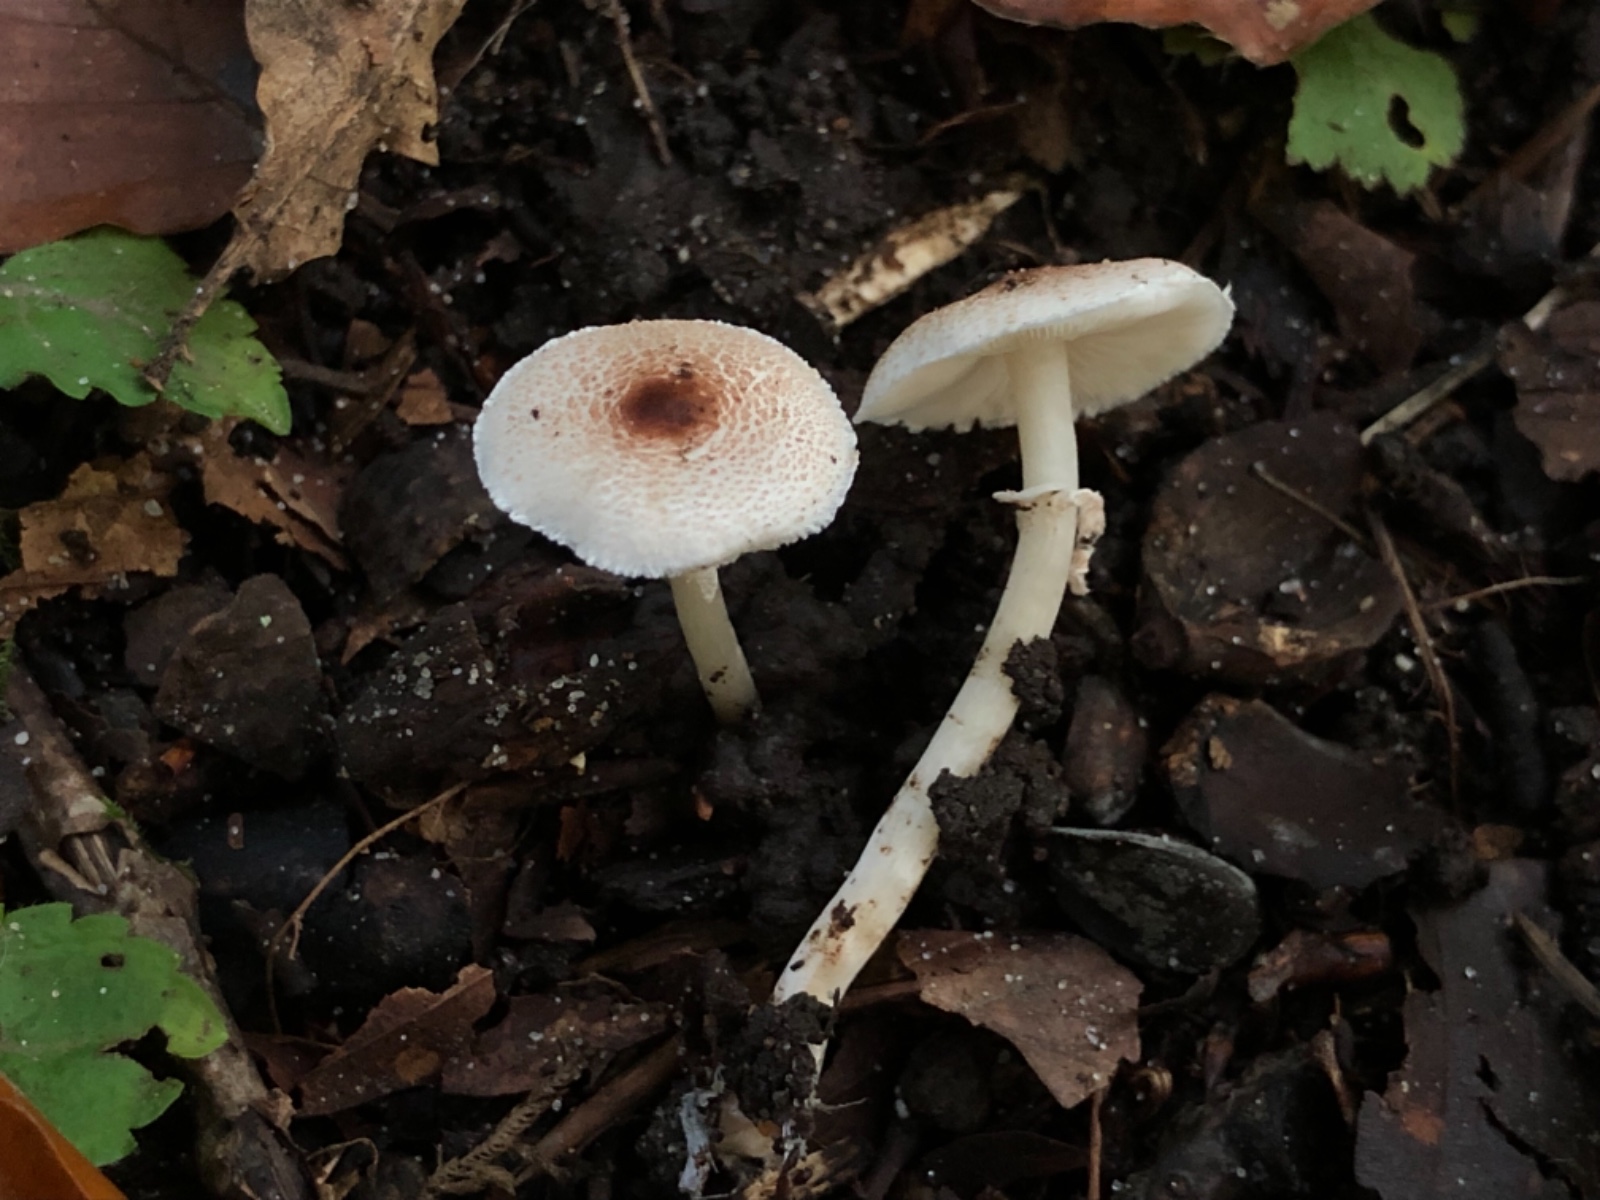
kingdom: Fungi
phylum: Basidiomycota
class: Agaricomycetes
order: Agaricales
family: Agaricaceae
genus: Lepiota
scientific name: Lepiota cristata
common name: stinkende parasolhat
